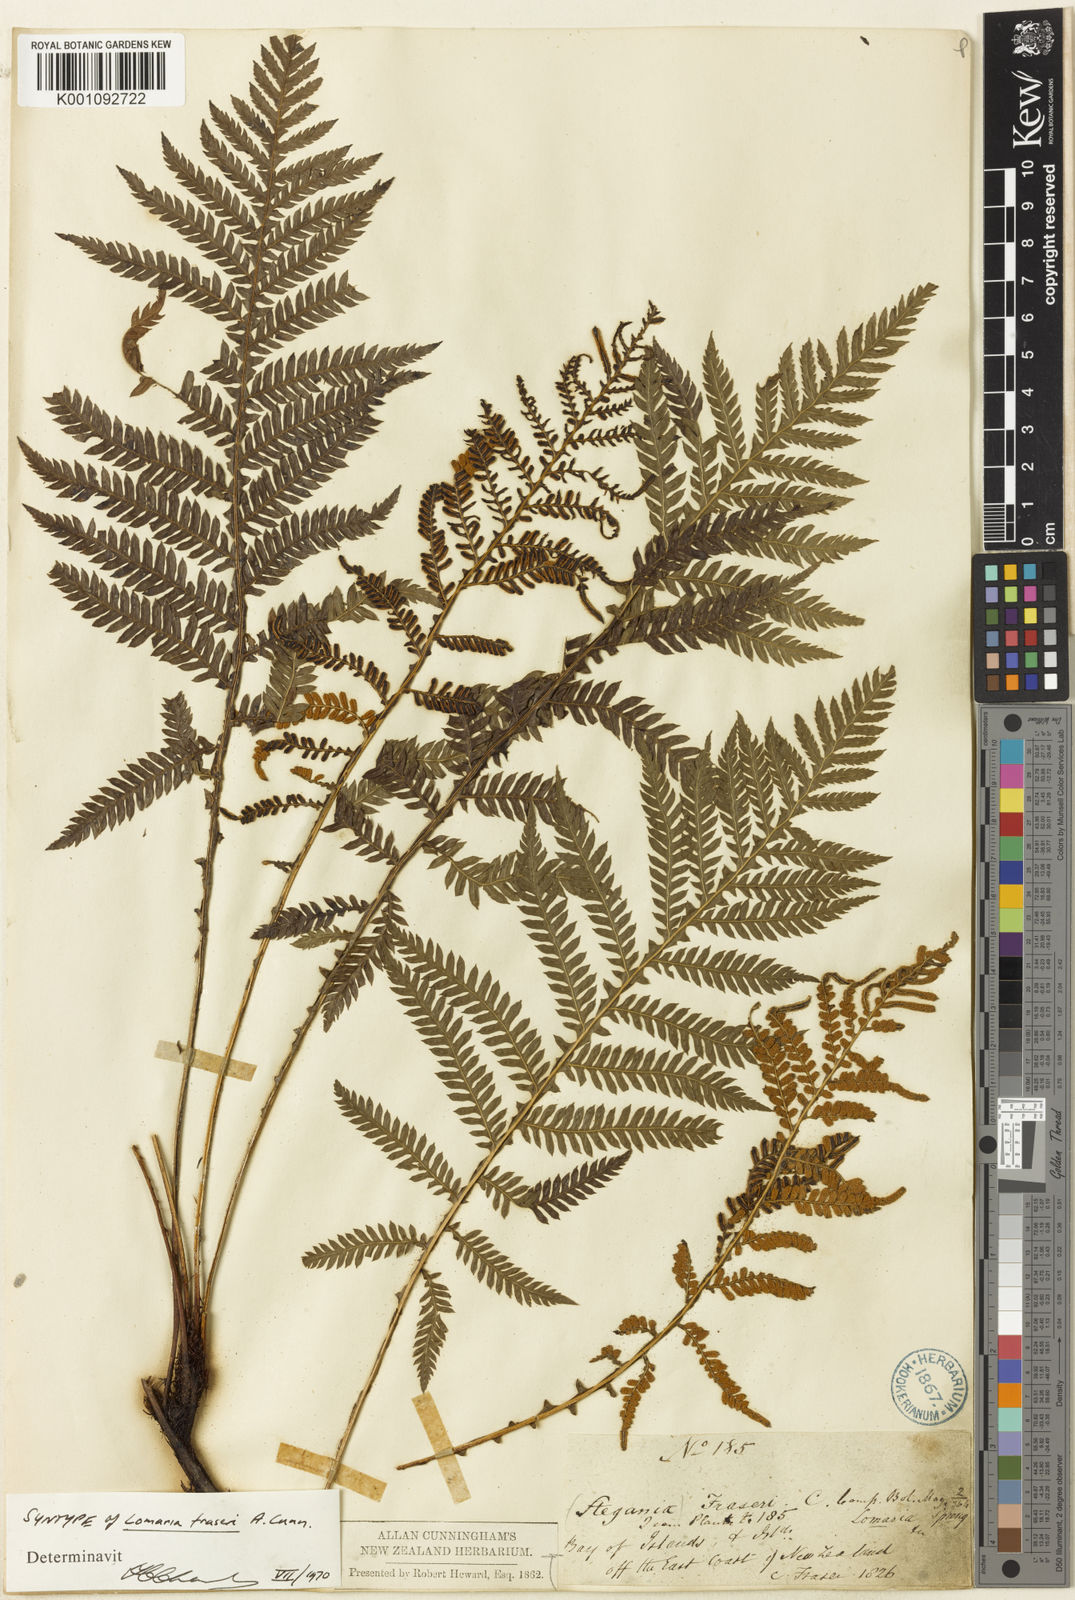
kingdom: Plantae
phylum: Tracheophyta
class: Polypodiopsida
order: Polypodiales
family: Blechnaceae
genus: Diploblechnum
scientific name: Diploblechnum fraseri
